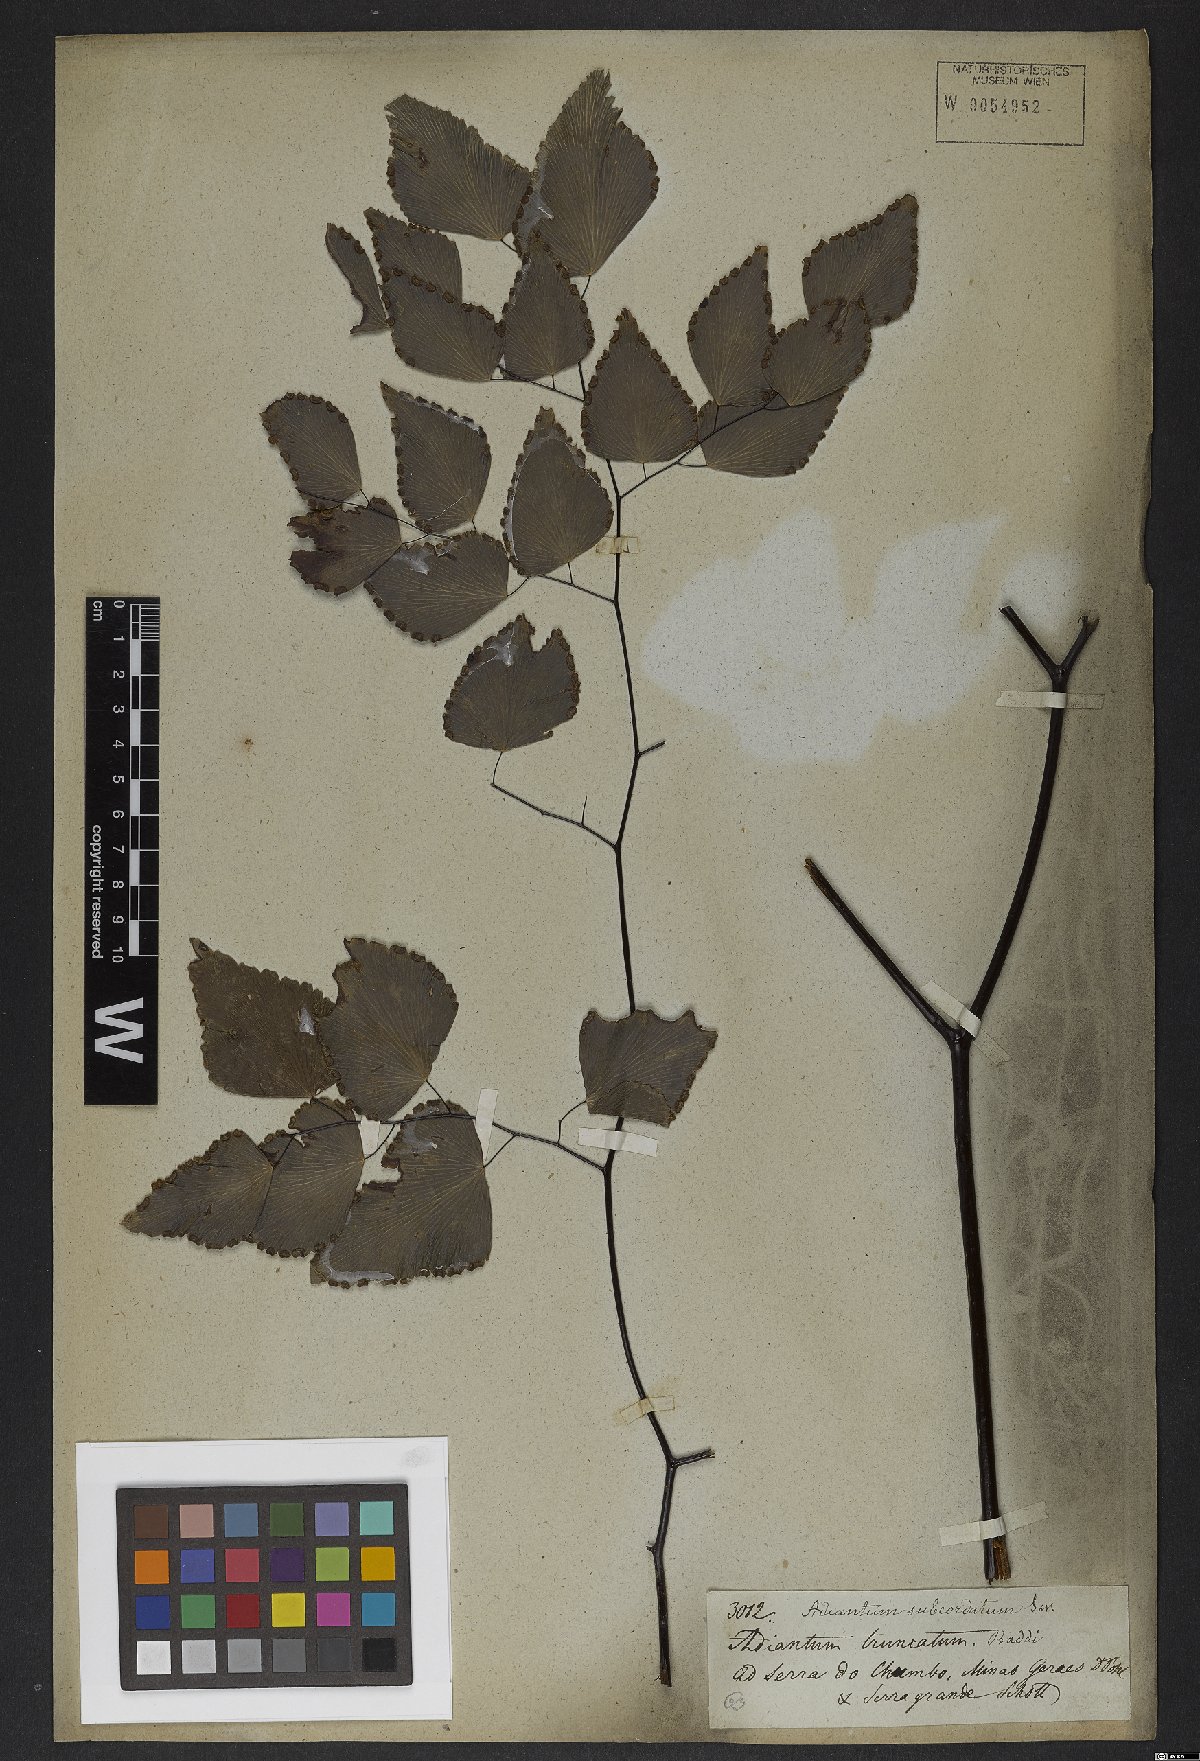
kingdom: Plantae
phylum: Tracheophyta
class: Polypodiopsida
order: Polypodiales
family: Pteridaceae
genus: Adiantum
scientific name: Adiantum subcordatum
